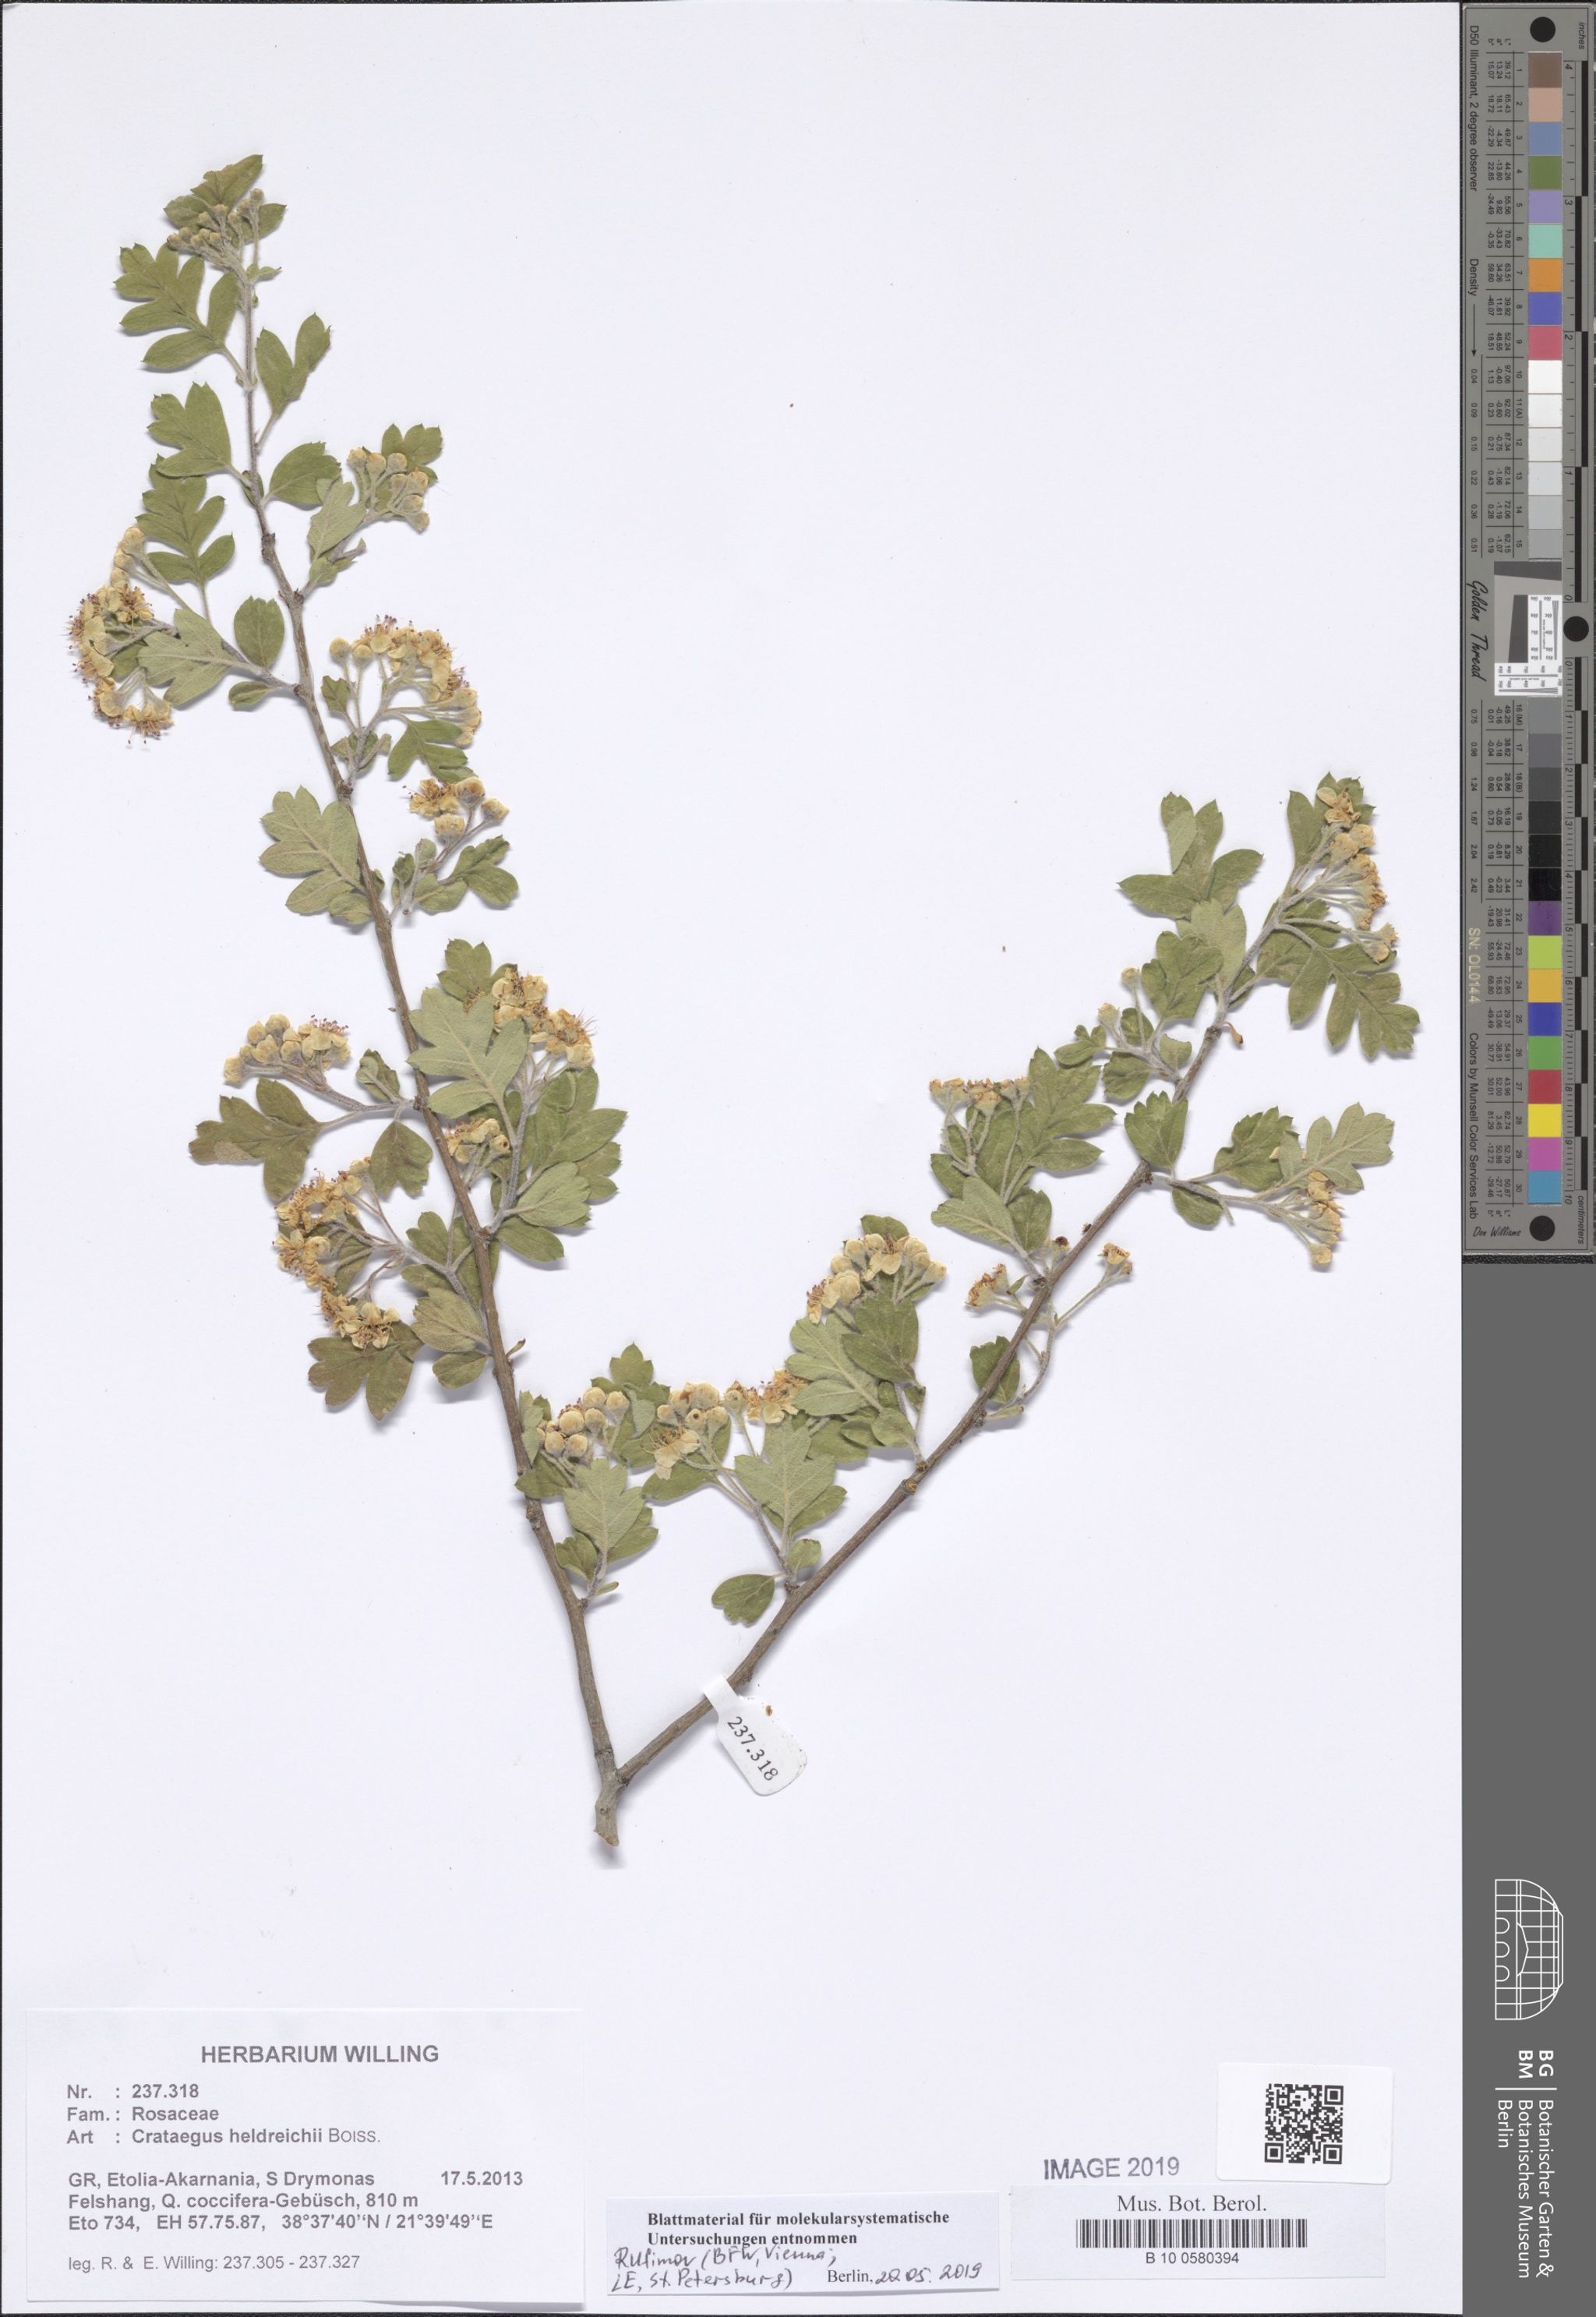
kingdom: Plantae
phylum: Tracheophyta
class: Magnoliopsida
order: Rosales
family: Rosaceae
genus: Crataegus
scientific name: Crataegus heldreichii
